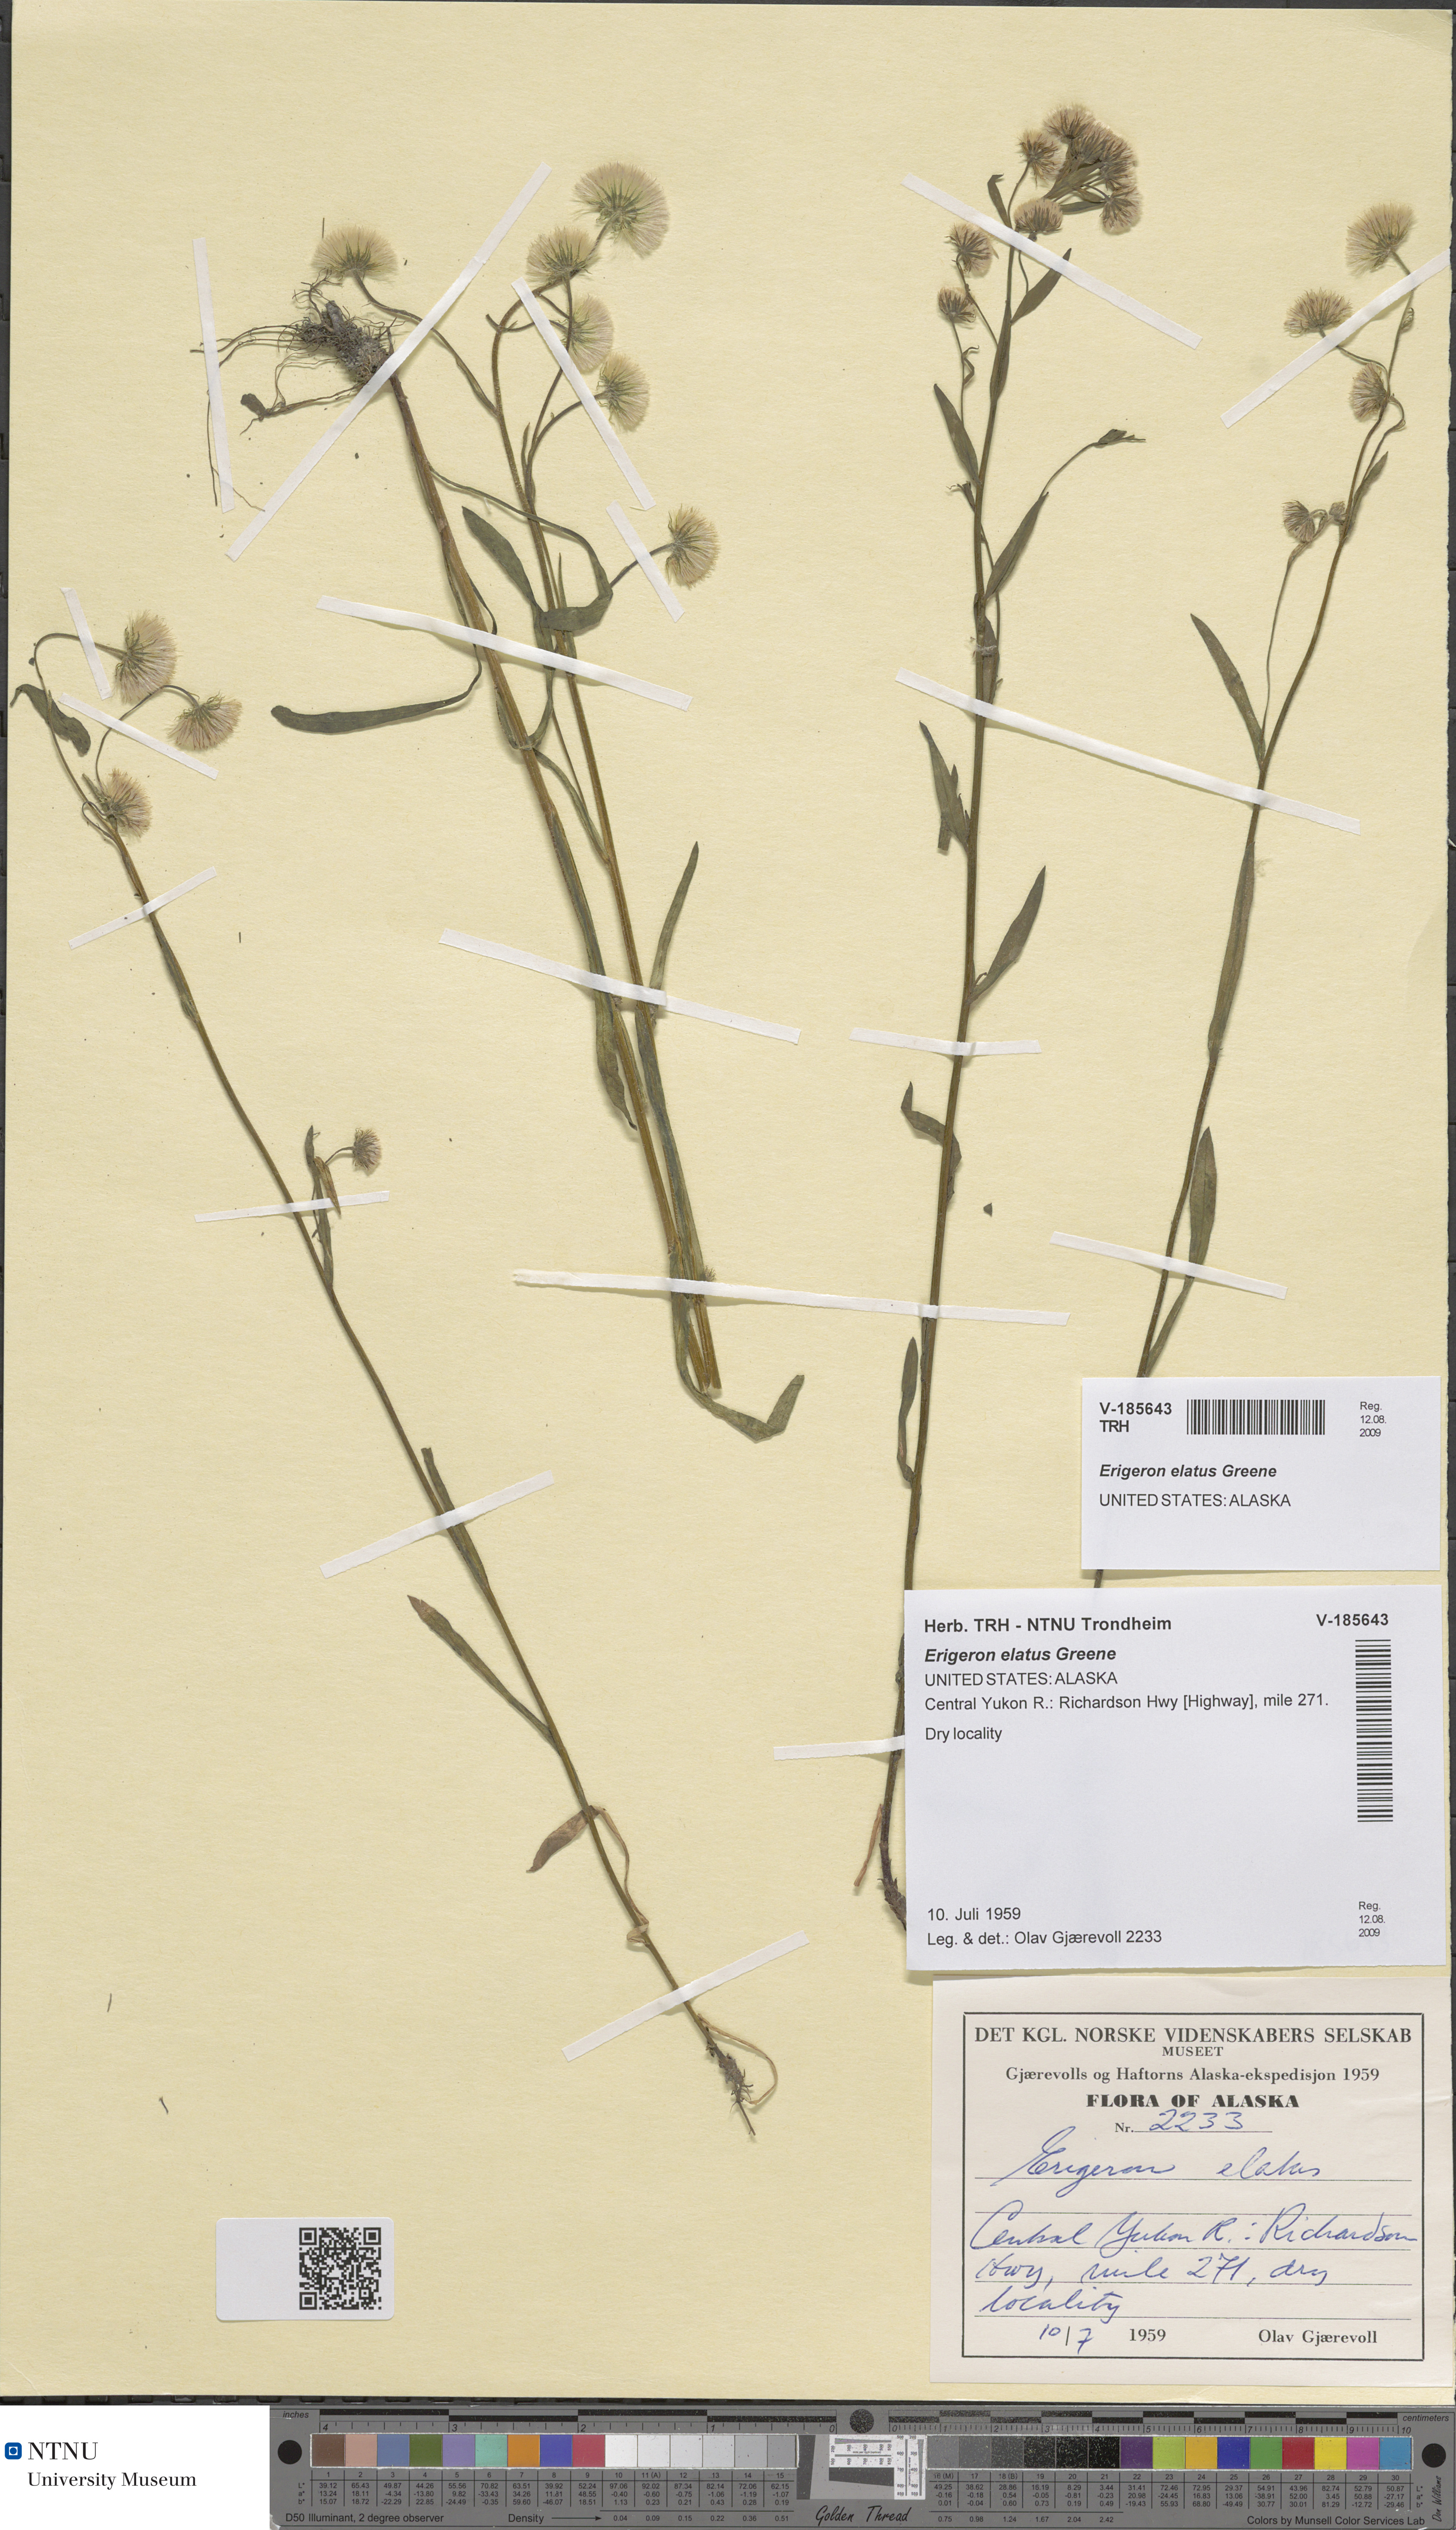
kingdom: Plantae
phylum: Tracheophyta
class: Magnoliopsida
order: Asterales
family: Asteraceae
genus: Erigeron
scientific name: Erigeron elatus
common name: Swamp fleabane
